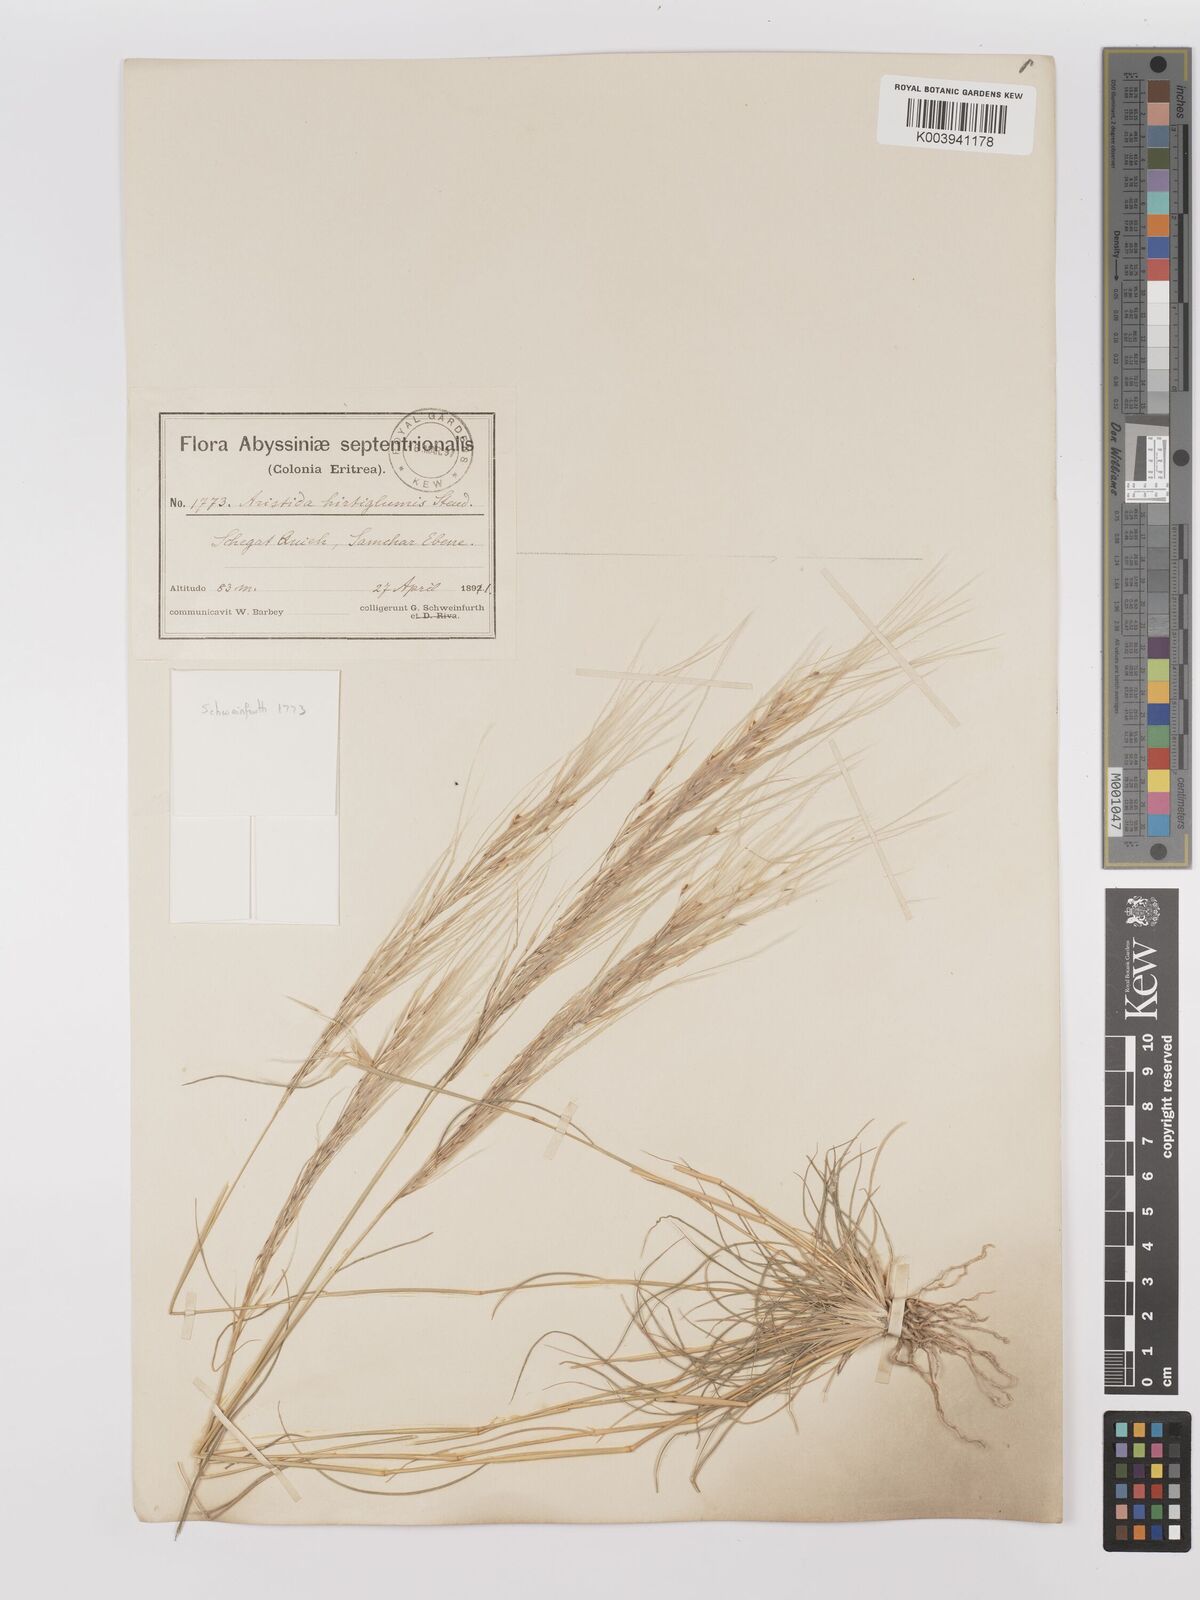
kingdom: Plantae
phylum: Tracheophyta
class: Liliopsida
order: Poales
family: Poaceae
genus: Stipagrostis
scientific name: Stipagrostis hirtigluma
